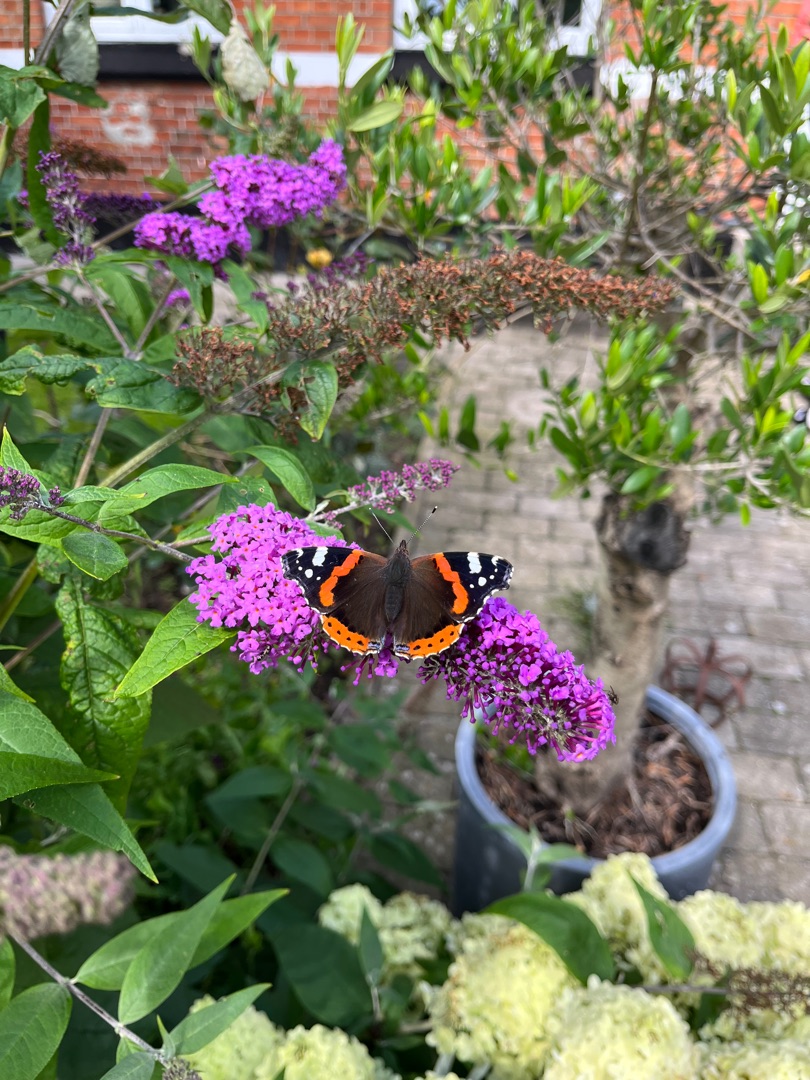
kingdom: Animalia
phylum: Arthropoda
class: Insecta
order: Lepidoptera
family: Nymphalidae
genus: Vanessa
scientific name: Vanessa atalanta
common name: Admiral
